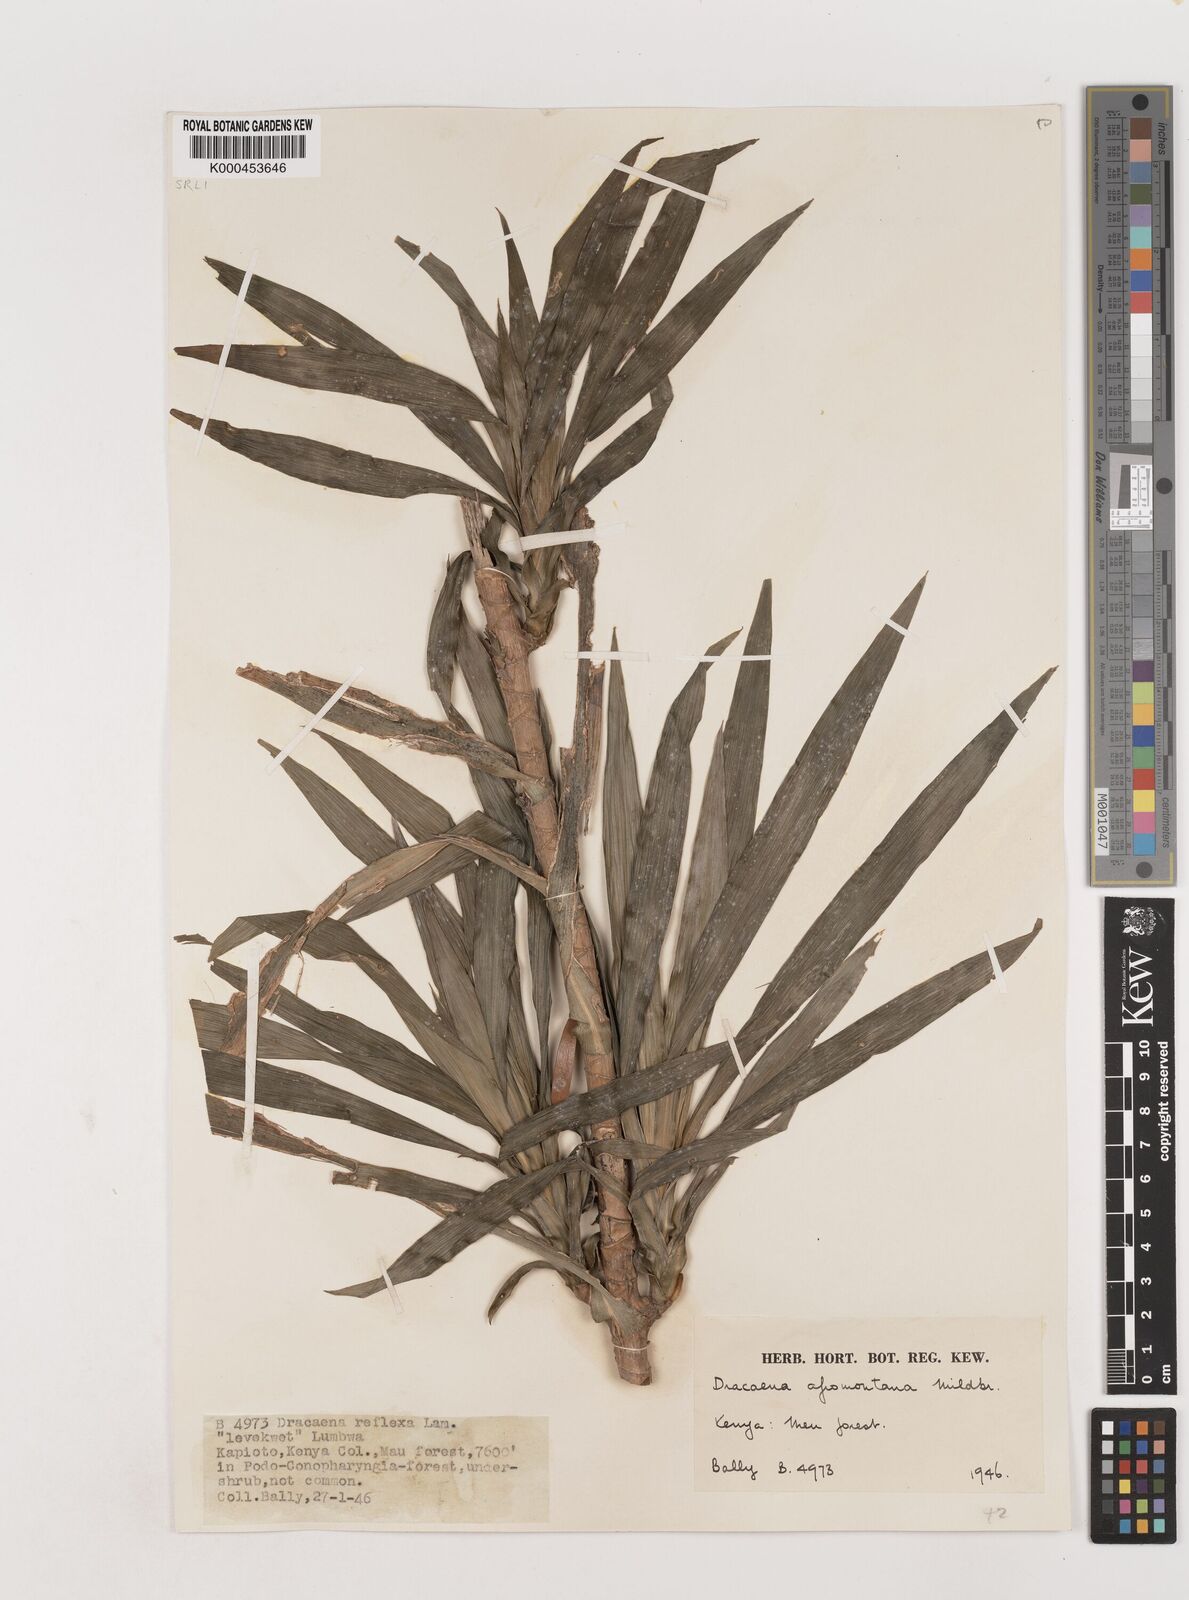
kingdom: Plantae
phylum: Tracheophyta
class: Liliopsida
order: Asparagales
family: Asparagaceae
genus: Dracaena
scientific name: Dracaena afromontana
